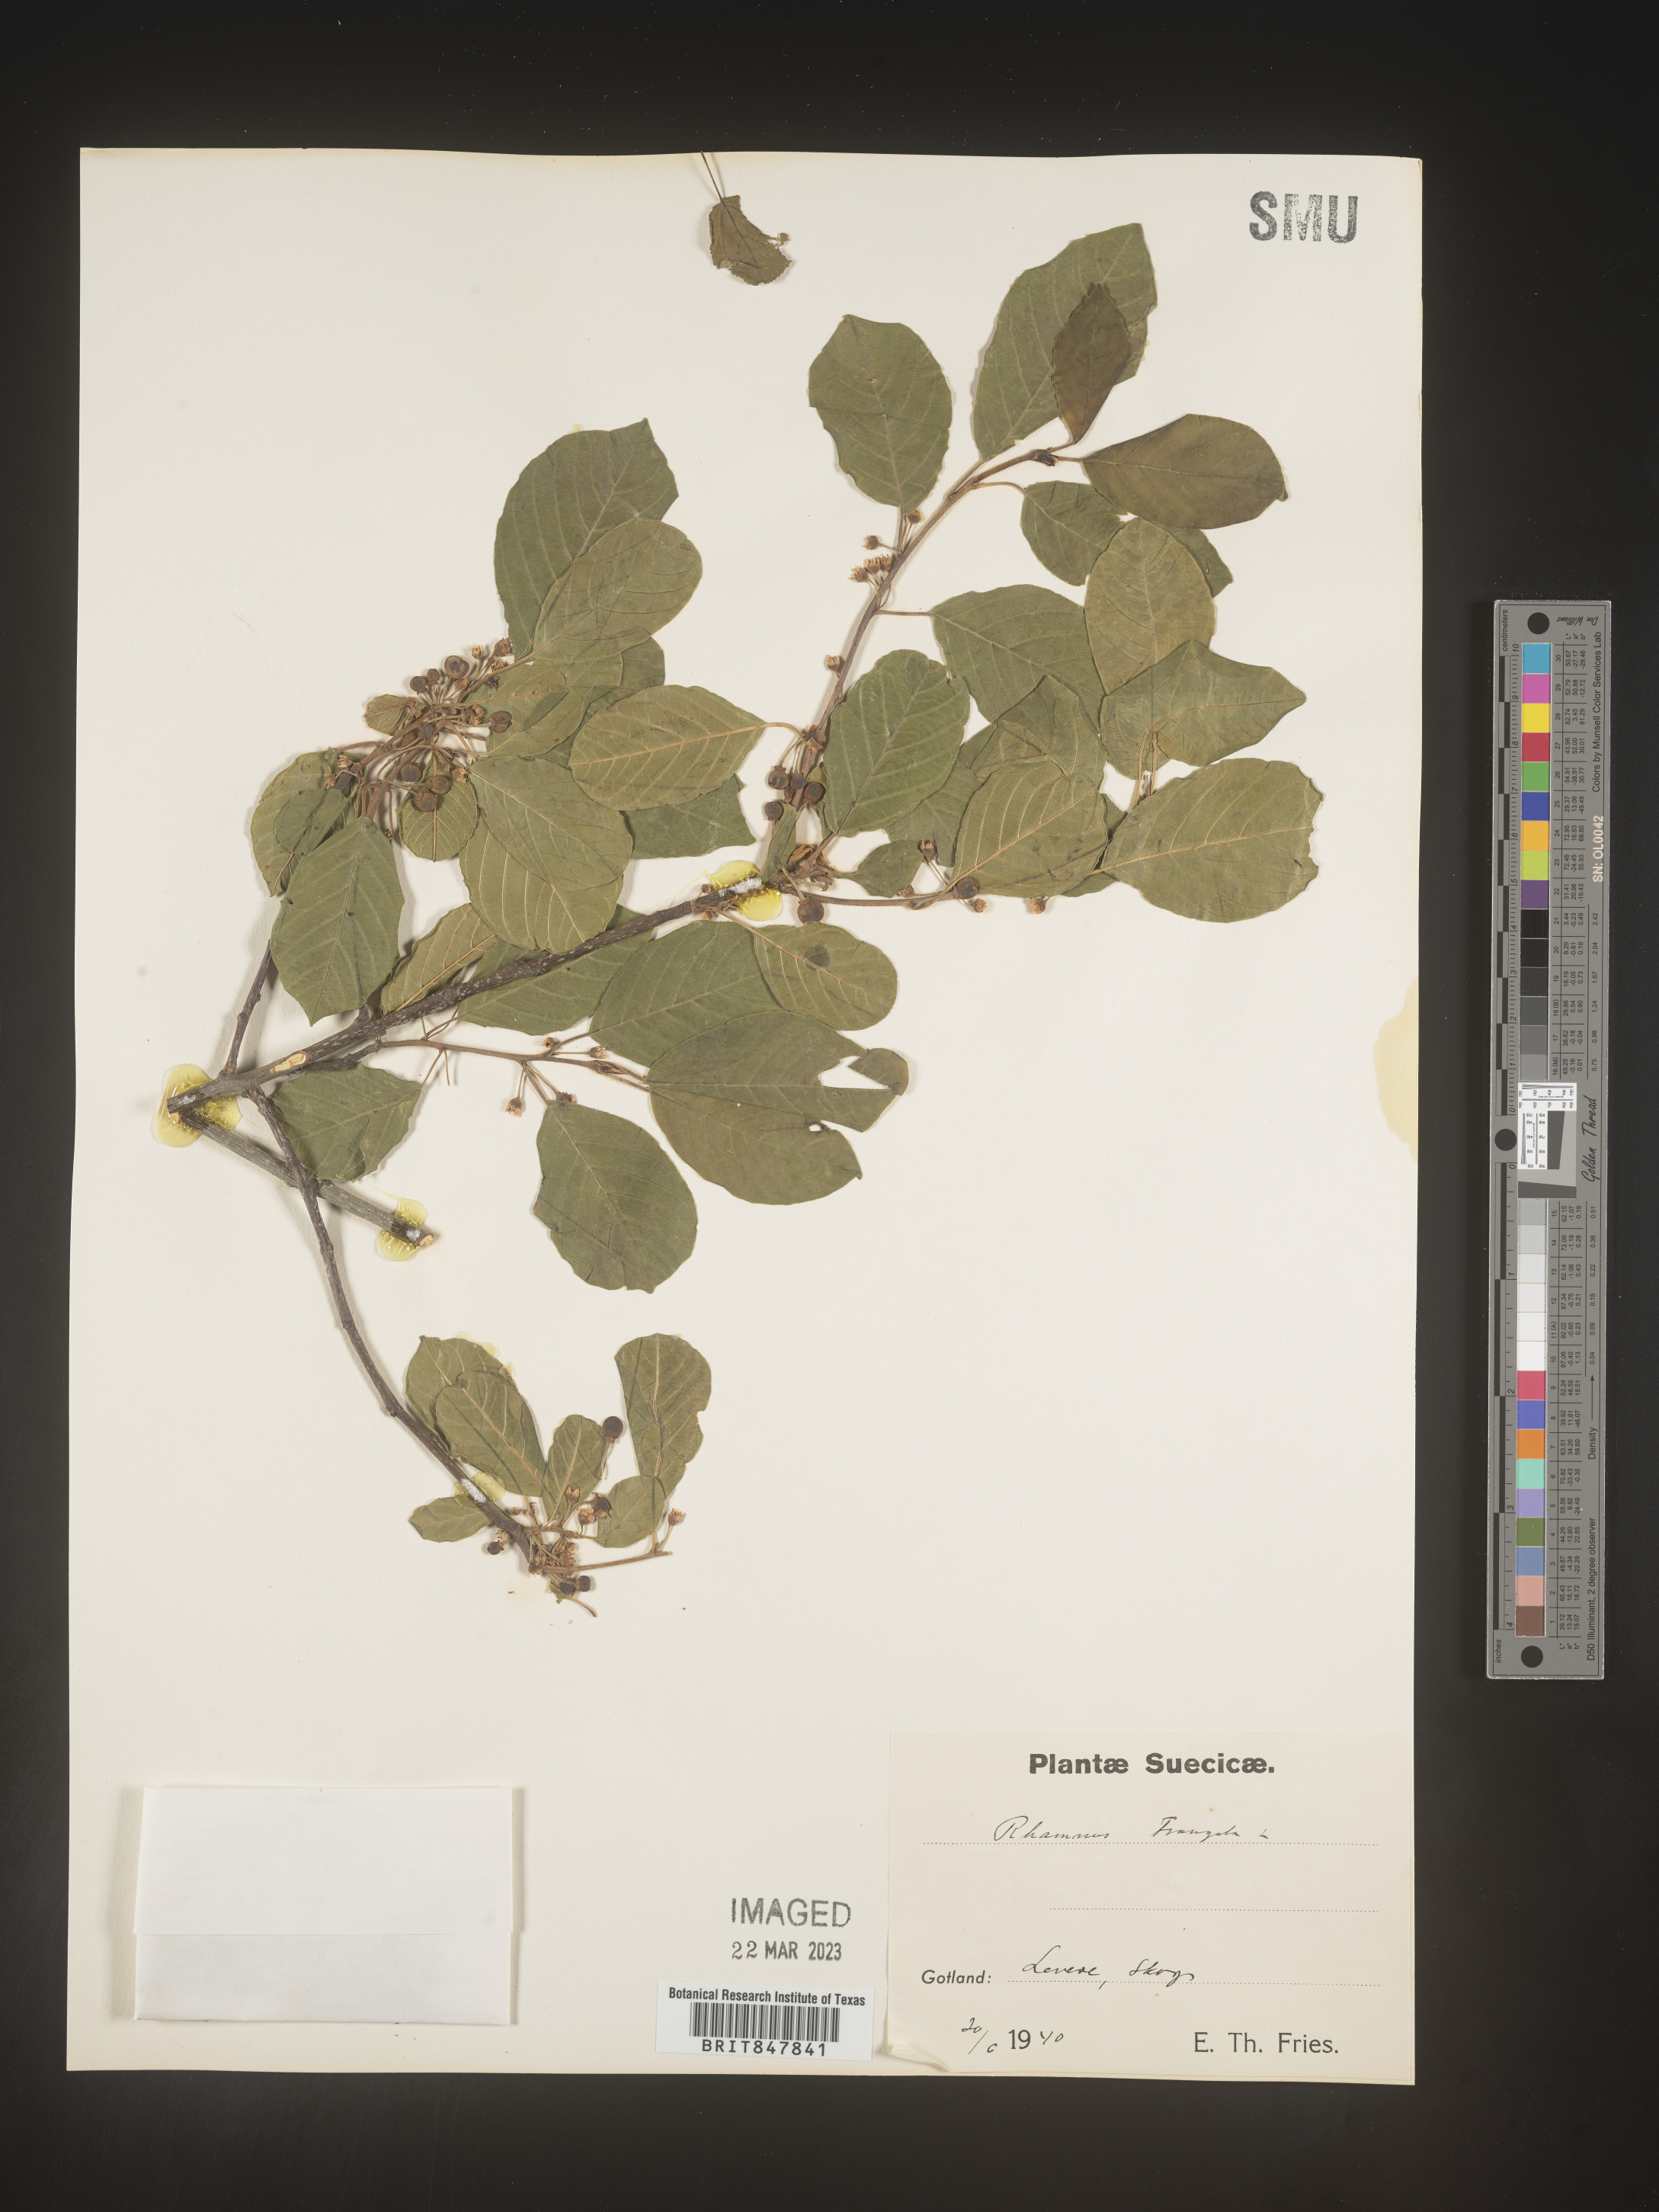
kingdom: Plantae
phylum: Tracheophyta
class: Magnoliopsida
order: Rosales
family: Rhamnaceae
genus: Rhamnus
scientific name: Rhamnus
